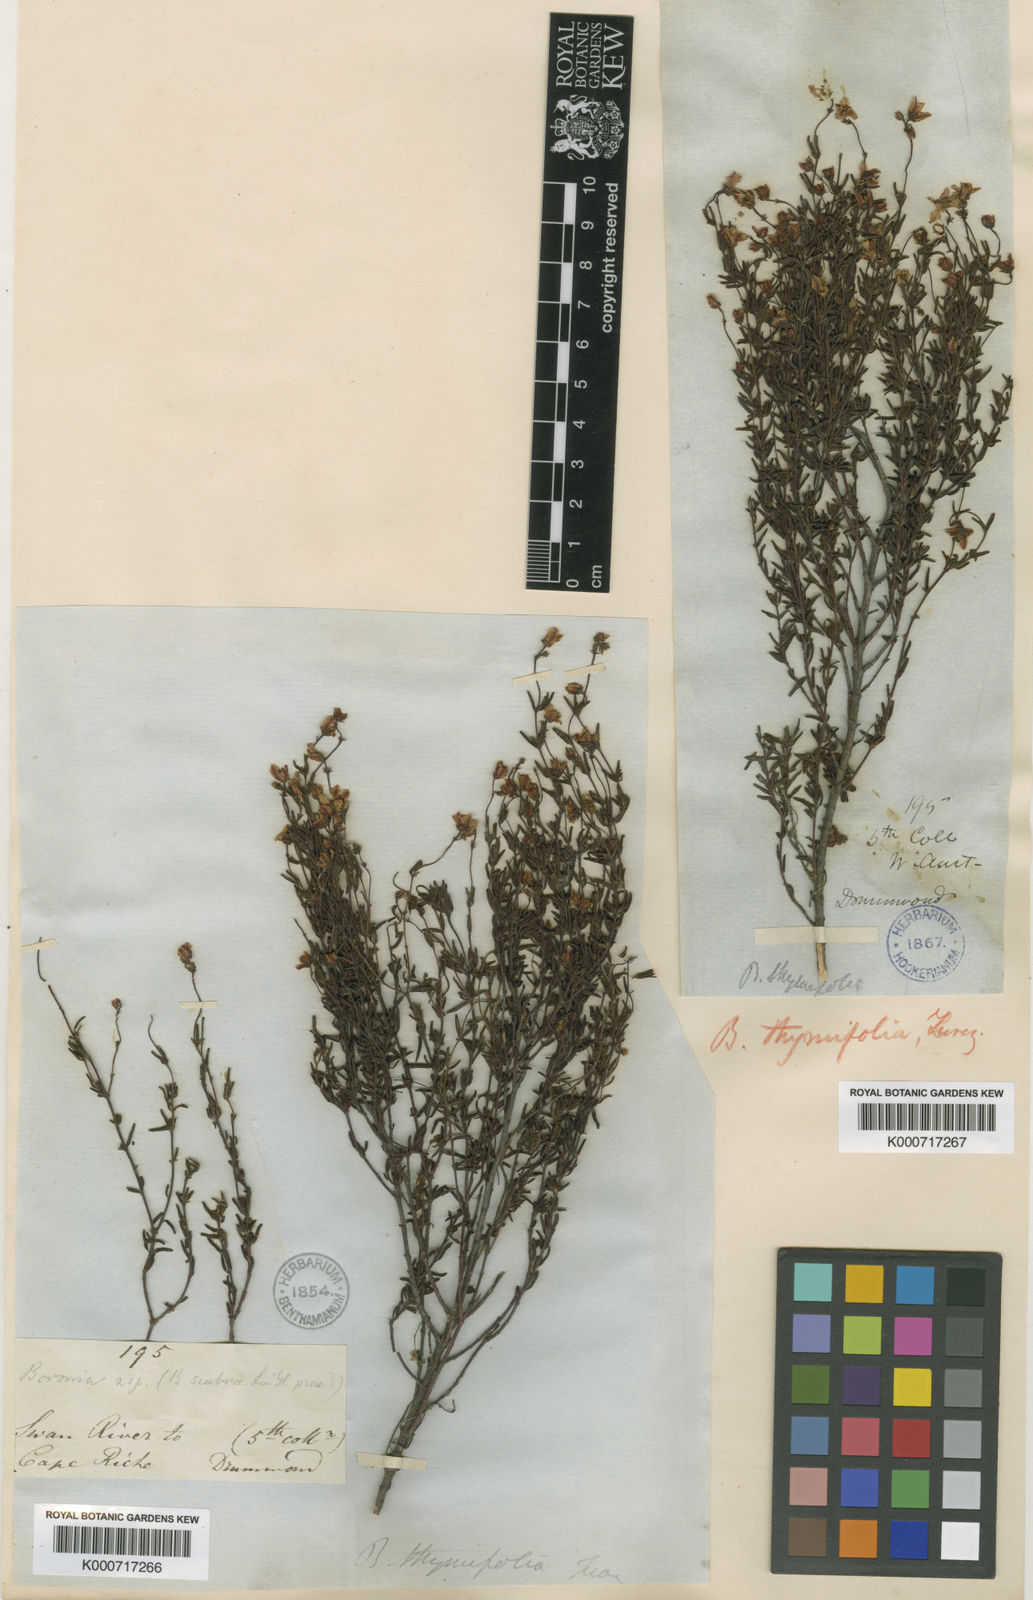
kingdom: Plantae
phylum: Tracheophyta
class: Magnoliopsida
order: Sapindales
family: Rutaceae
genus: Boronia
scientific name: Boronia scabra
